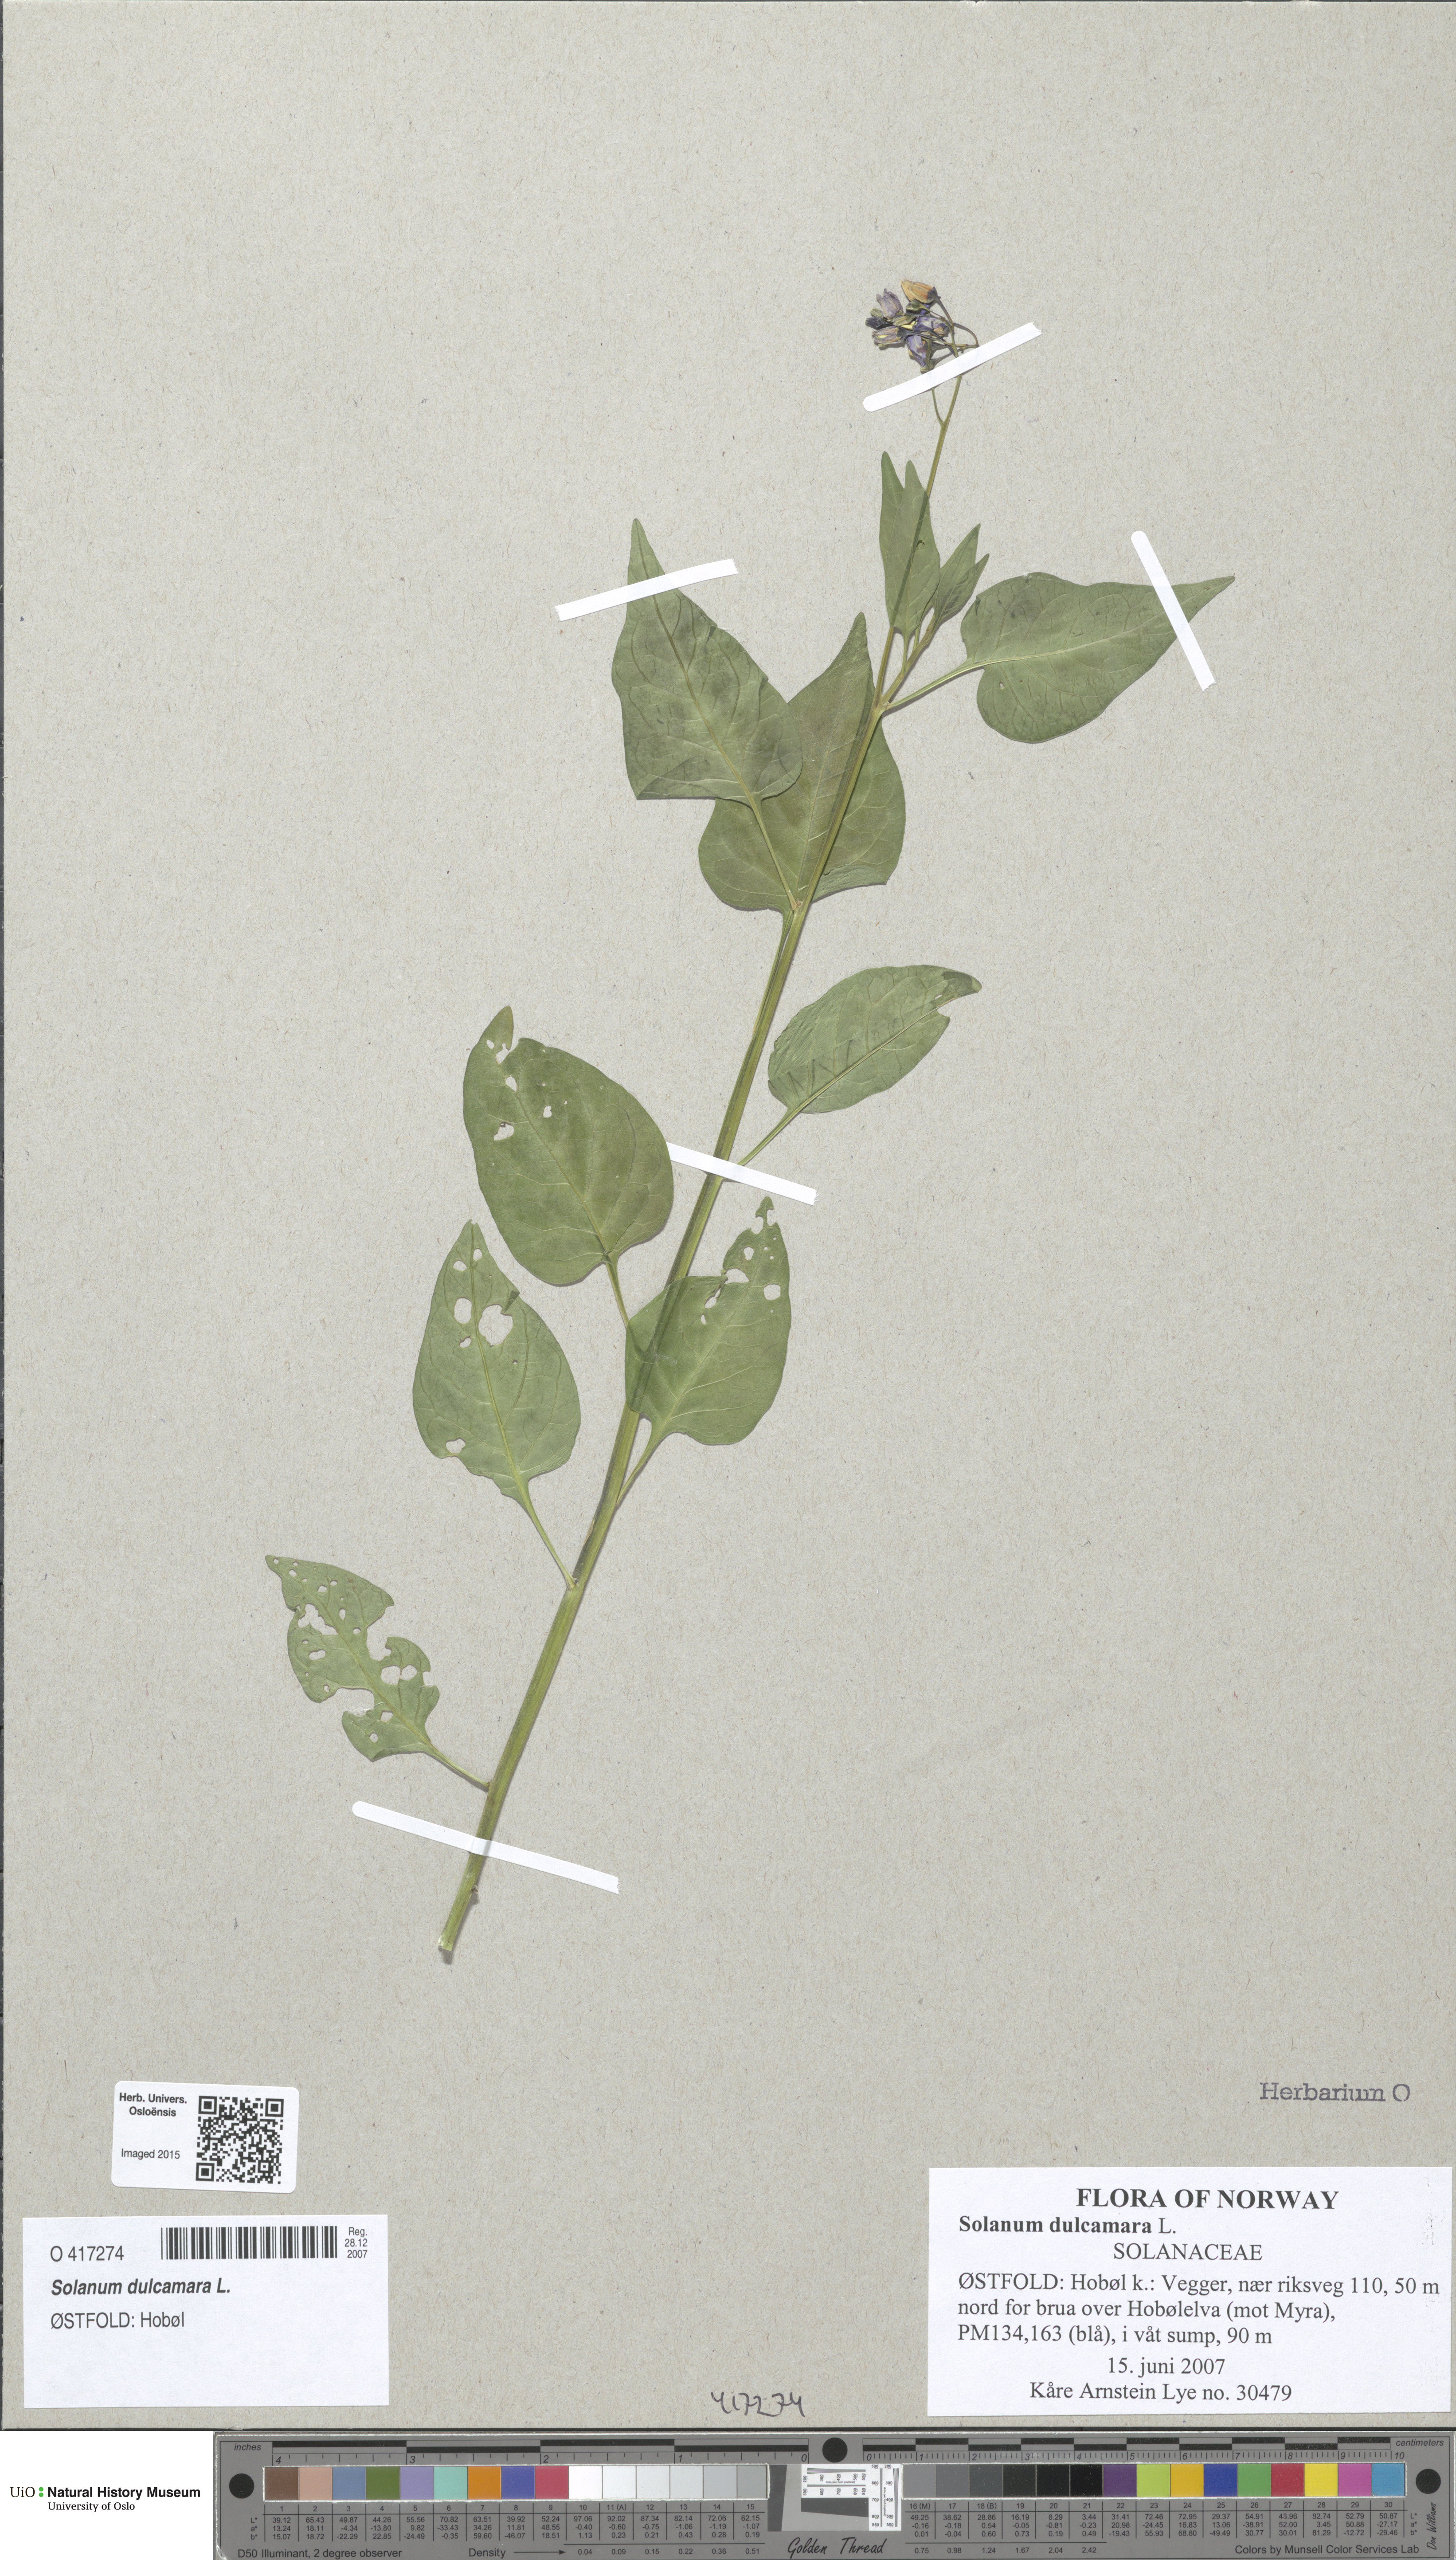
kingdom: Plantae
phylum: Tracheophyta
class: Magnoliopsida
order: Solanales
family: Solanaceae
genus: Solanum
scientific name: Solanum dulcamara
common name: Climbing nightshade
